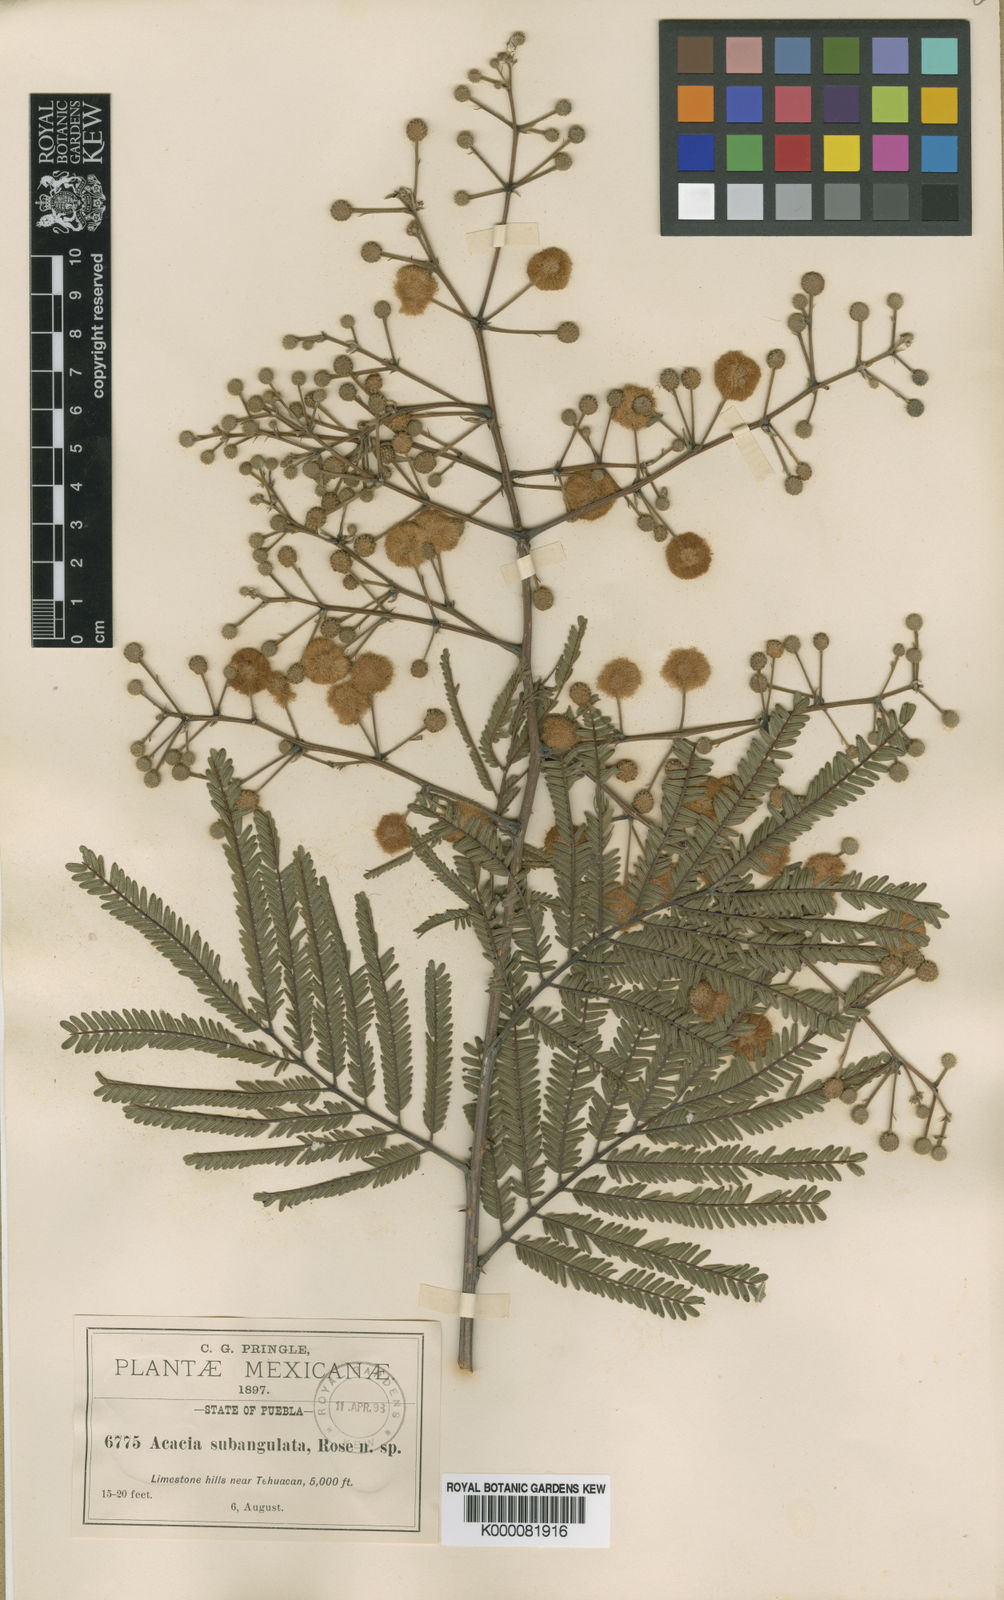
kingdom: Plantae
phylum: Tracheophyta
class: Magnoliopsida
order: Fabales
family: Fabaceae
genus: Senegalia
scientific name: Senegalia subangulata
